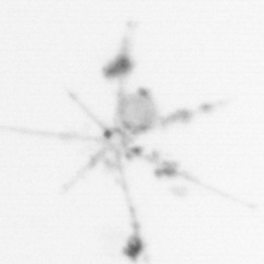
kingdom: Chromista
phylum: Ochrophyta
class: Bacillariophyceae
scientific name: Bacillariophyceae
